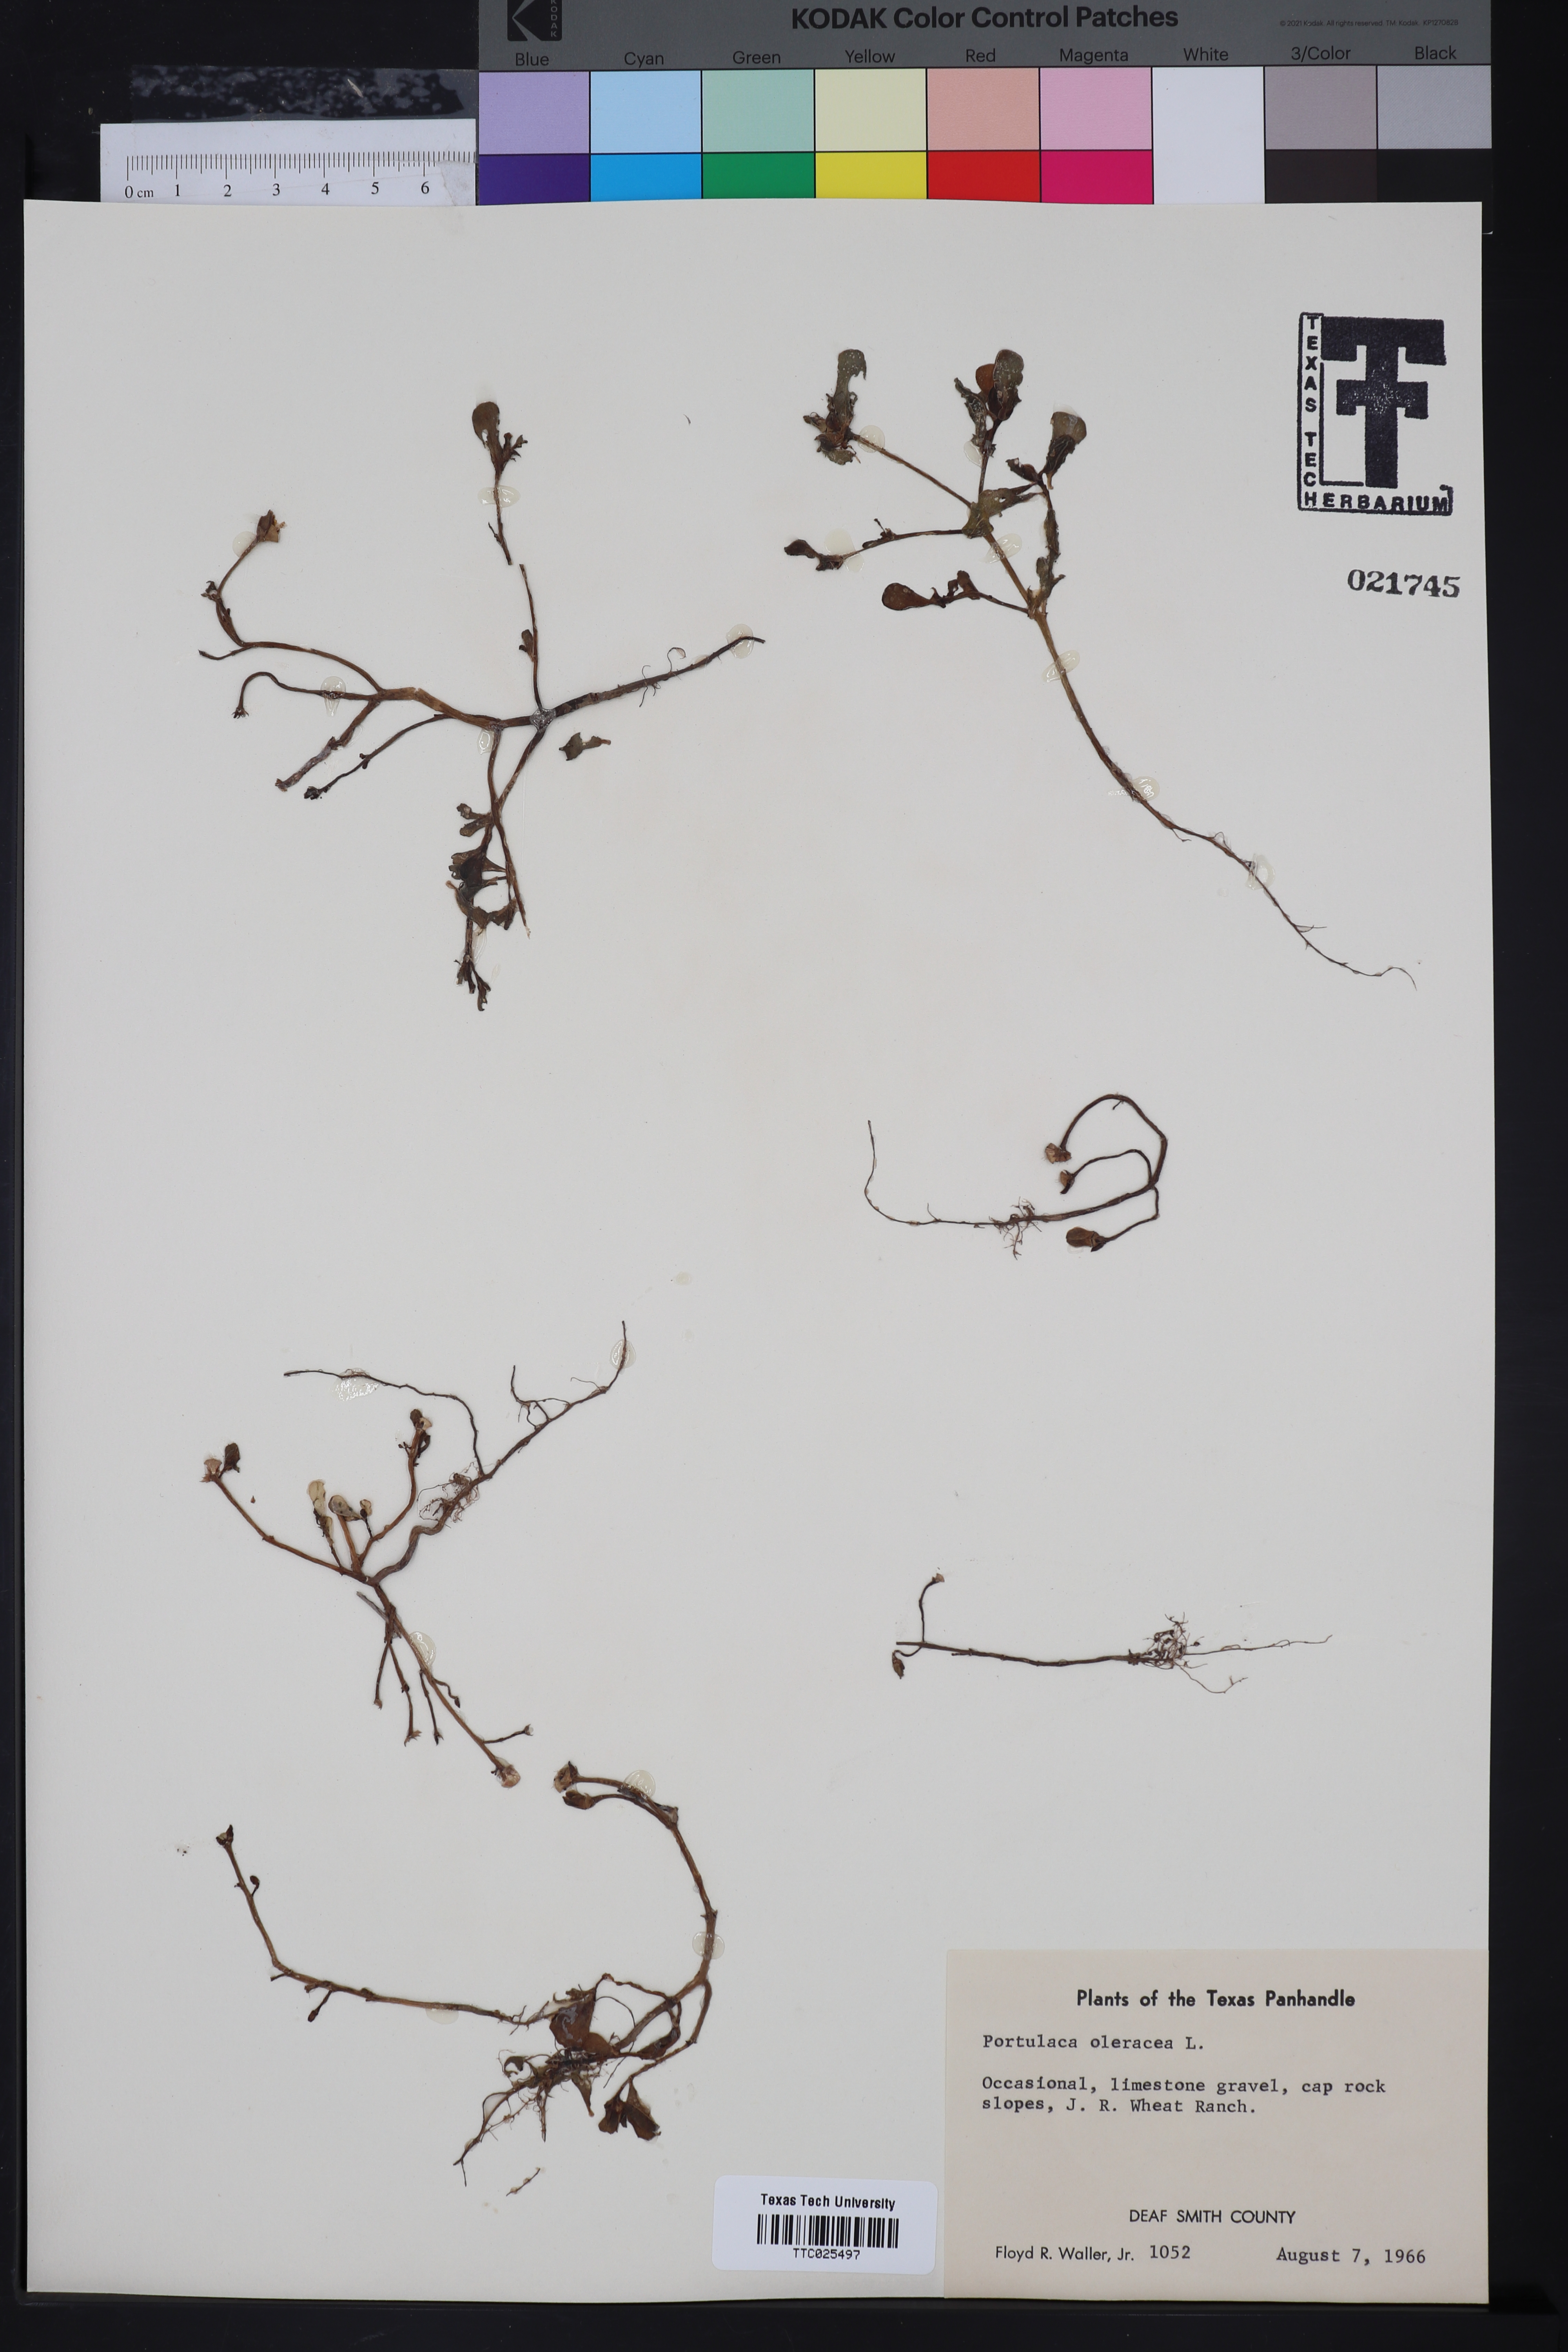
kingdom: Plantae
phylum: Tracheophyta
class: Magnoliopsida
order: Caryophyllales
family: Portulacaceae
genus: Portulaca
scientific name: Portulaca oleracea
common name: Common purslane
